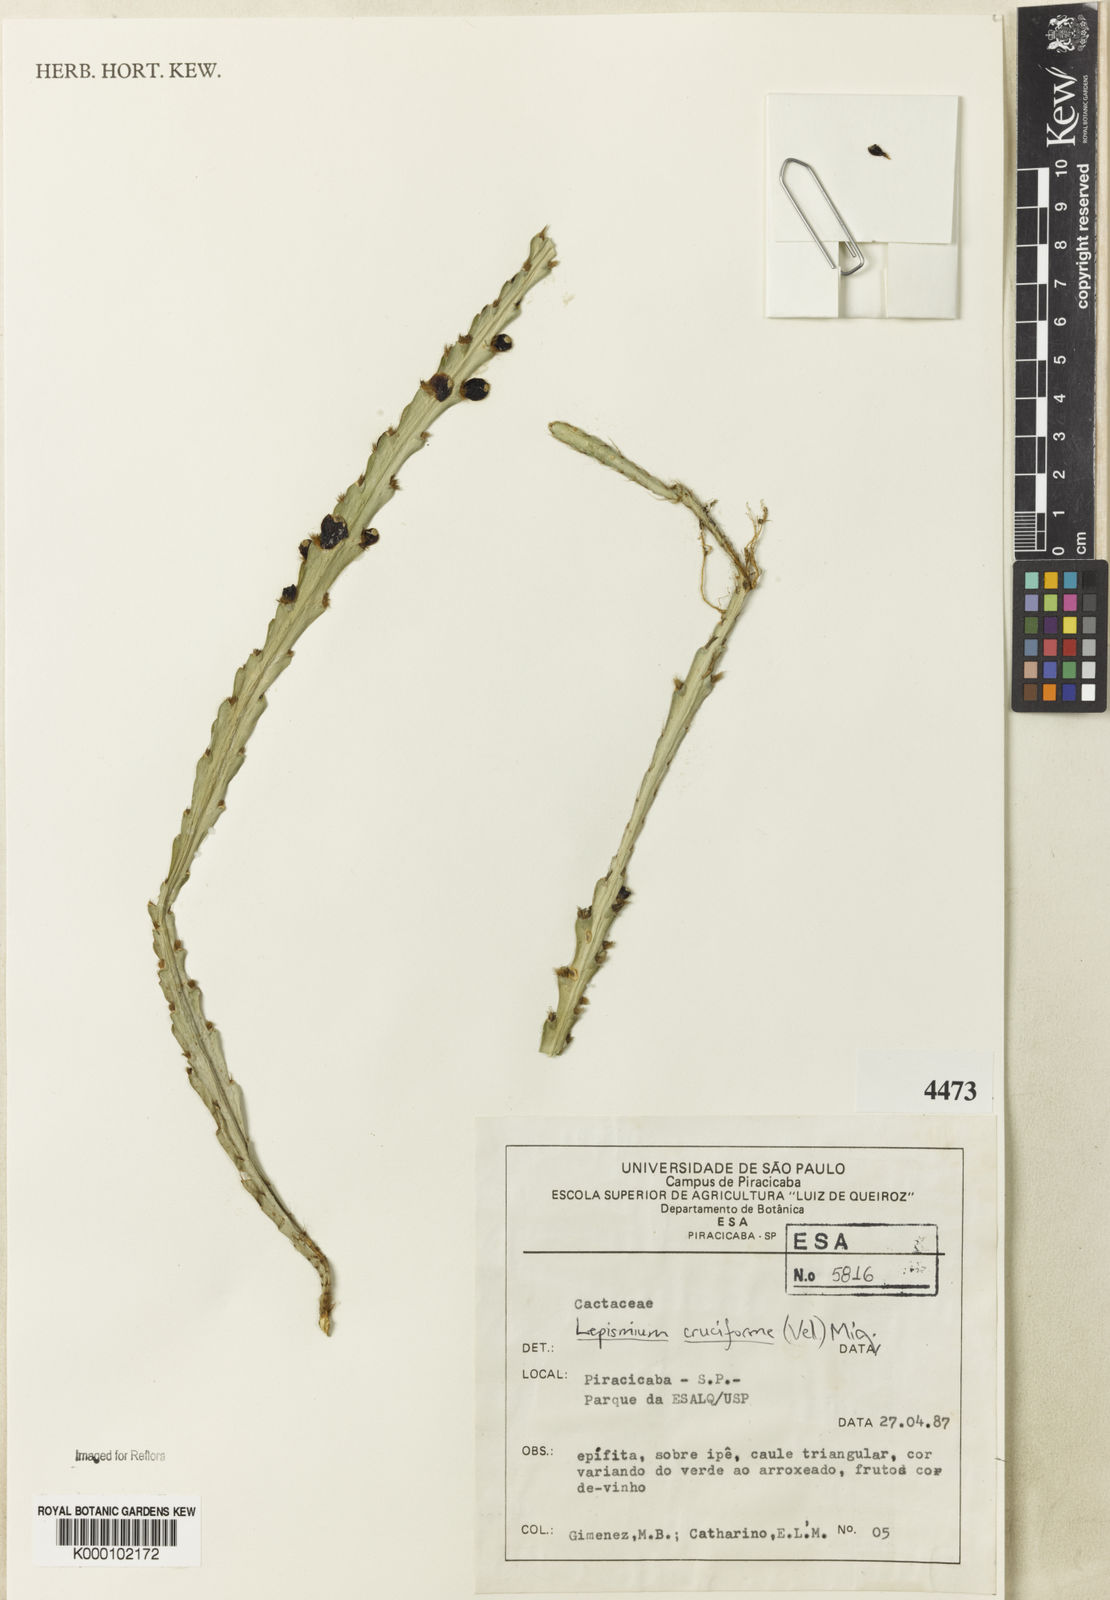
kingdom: Plantae
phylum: Tracheophyta
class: Magnoliopsida
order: Caryophyllales
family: Cactaceae
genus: Lepismium
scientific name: Lepismium cruciforme
